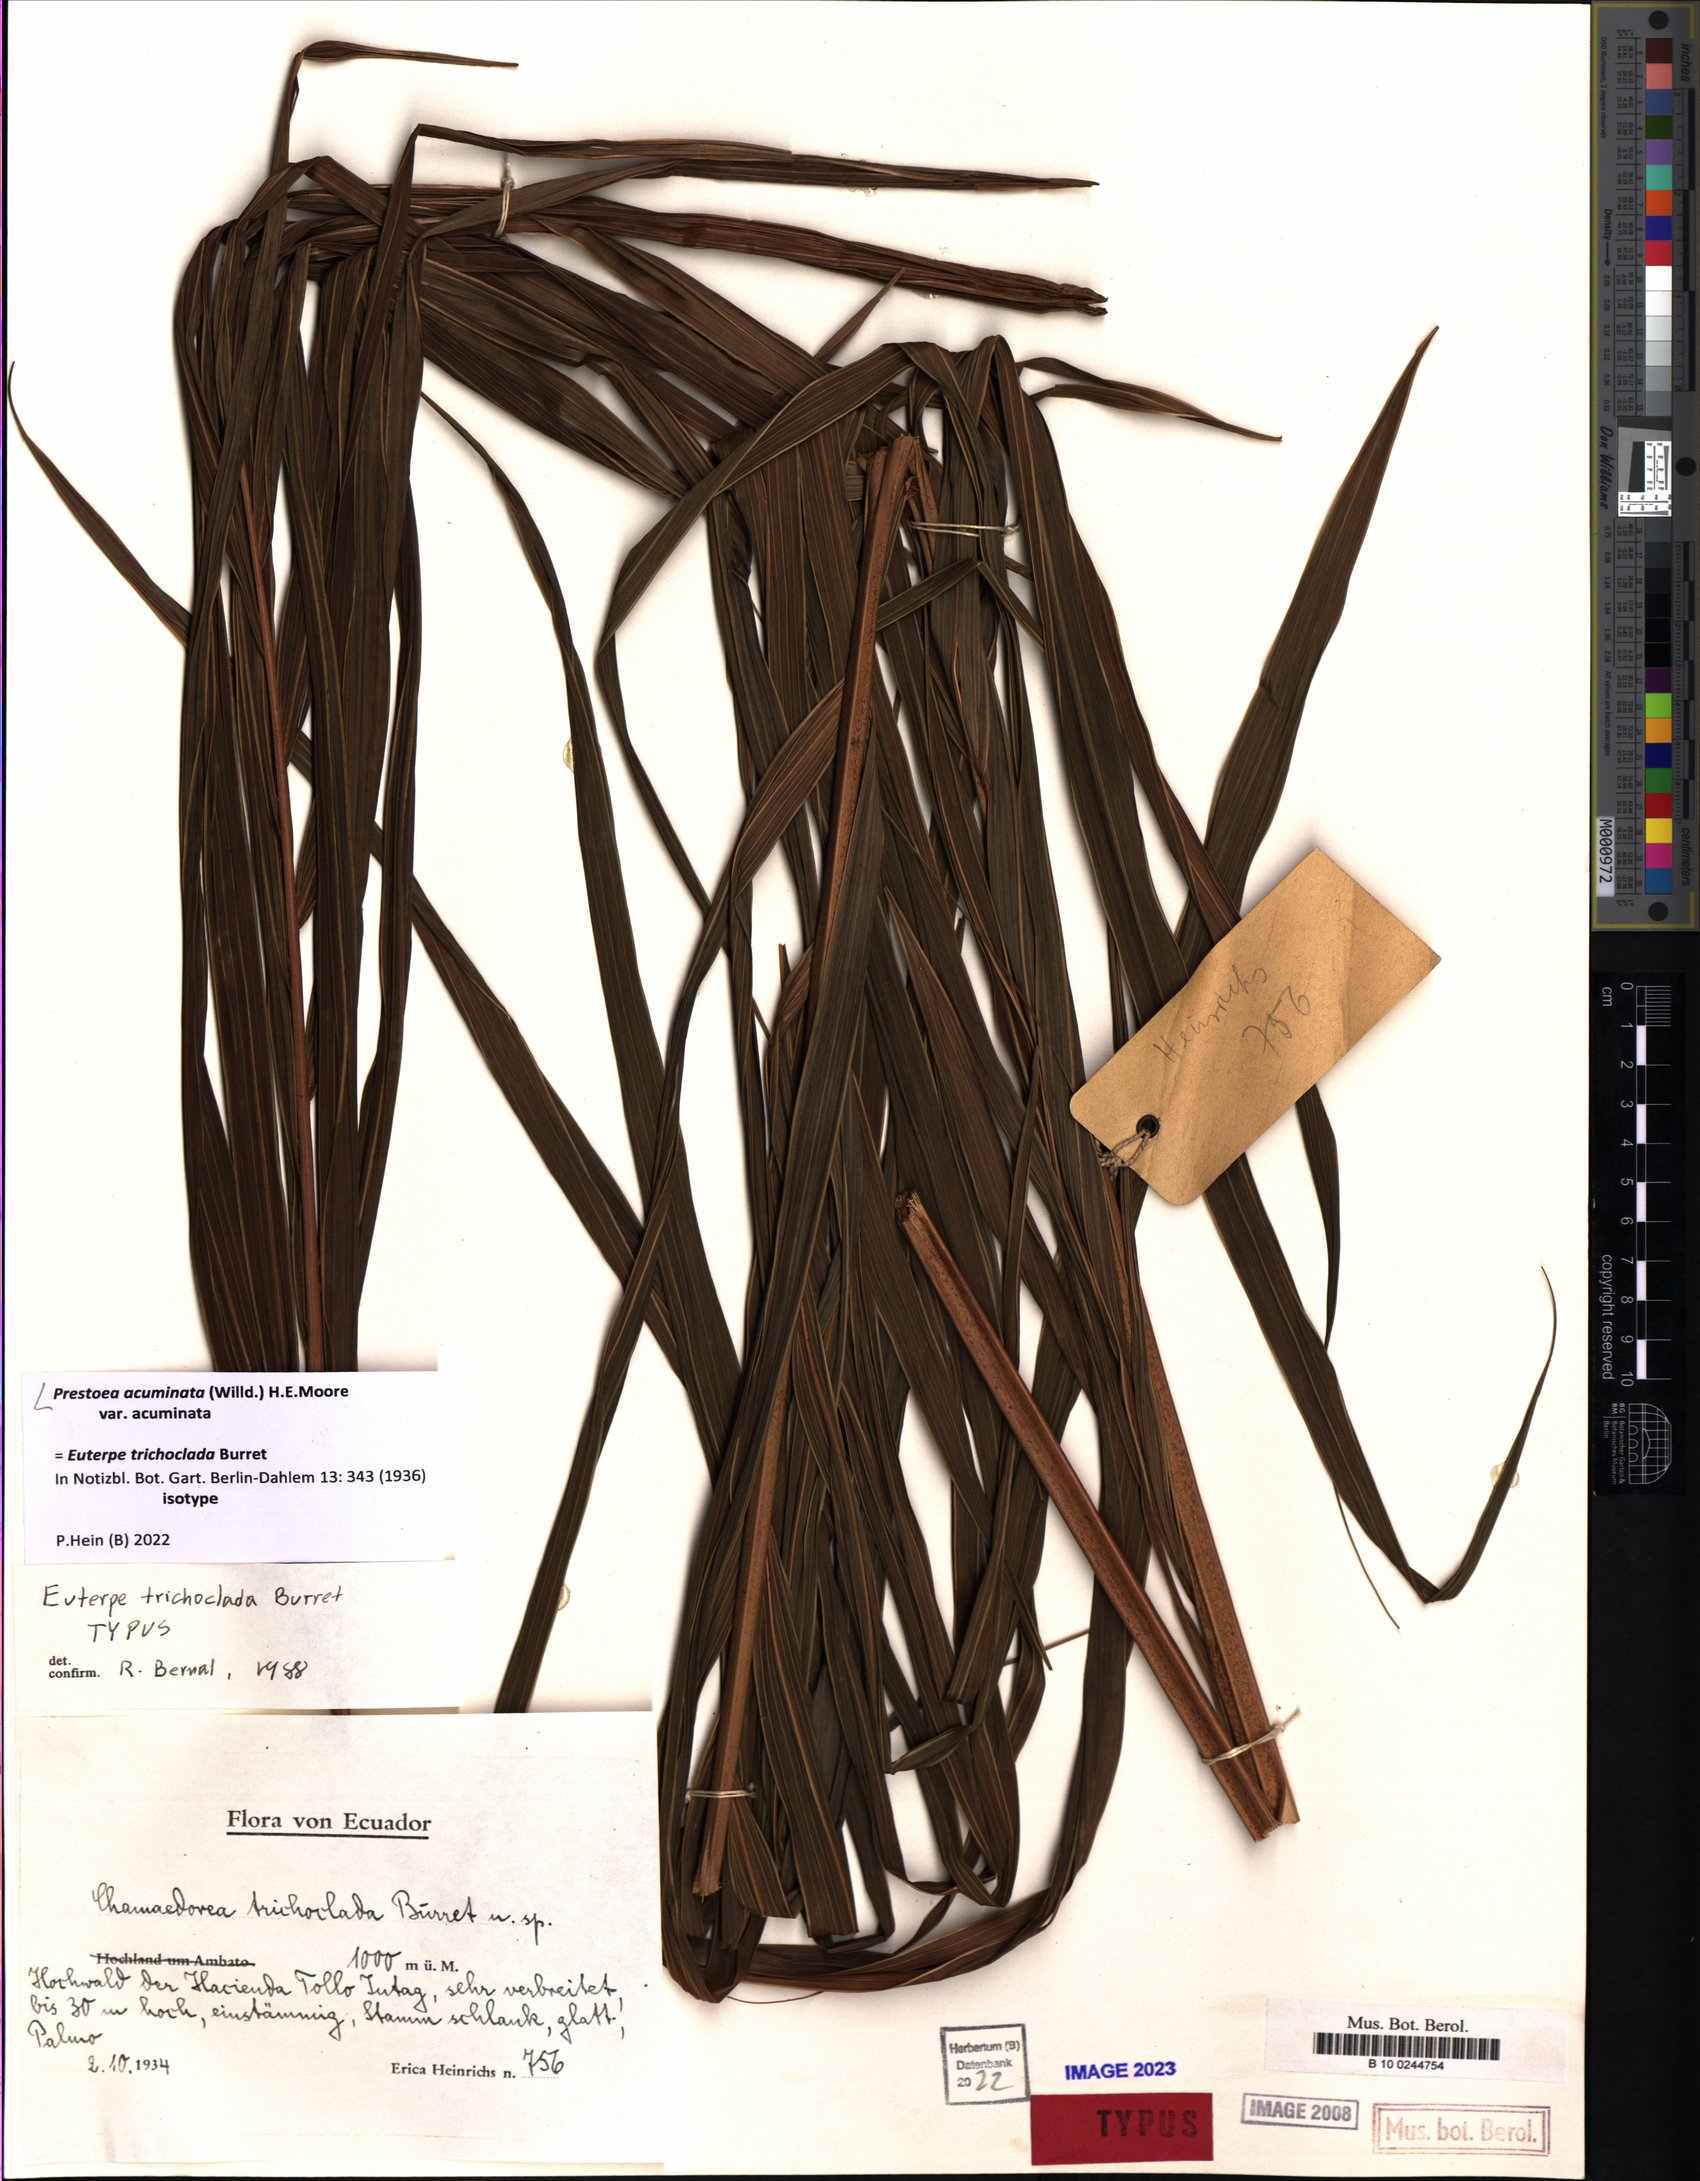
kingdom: Plantae
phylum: Tracheophyta
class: Liliopsida
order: Arecales
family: Arecaceae
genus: Prestoea
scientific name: Prestoea acuminata
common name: Sierran palm
